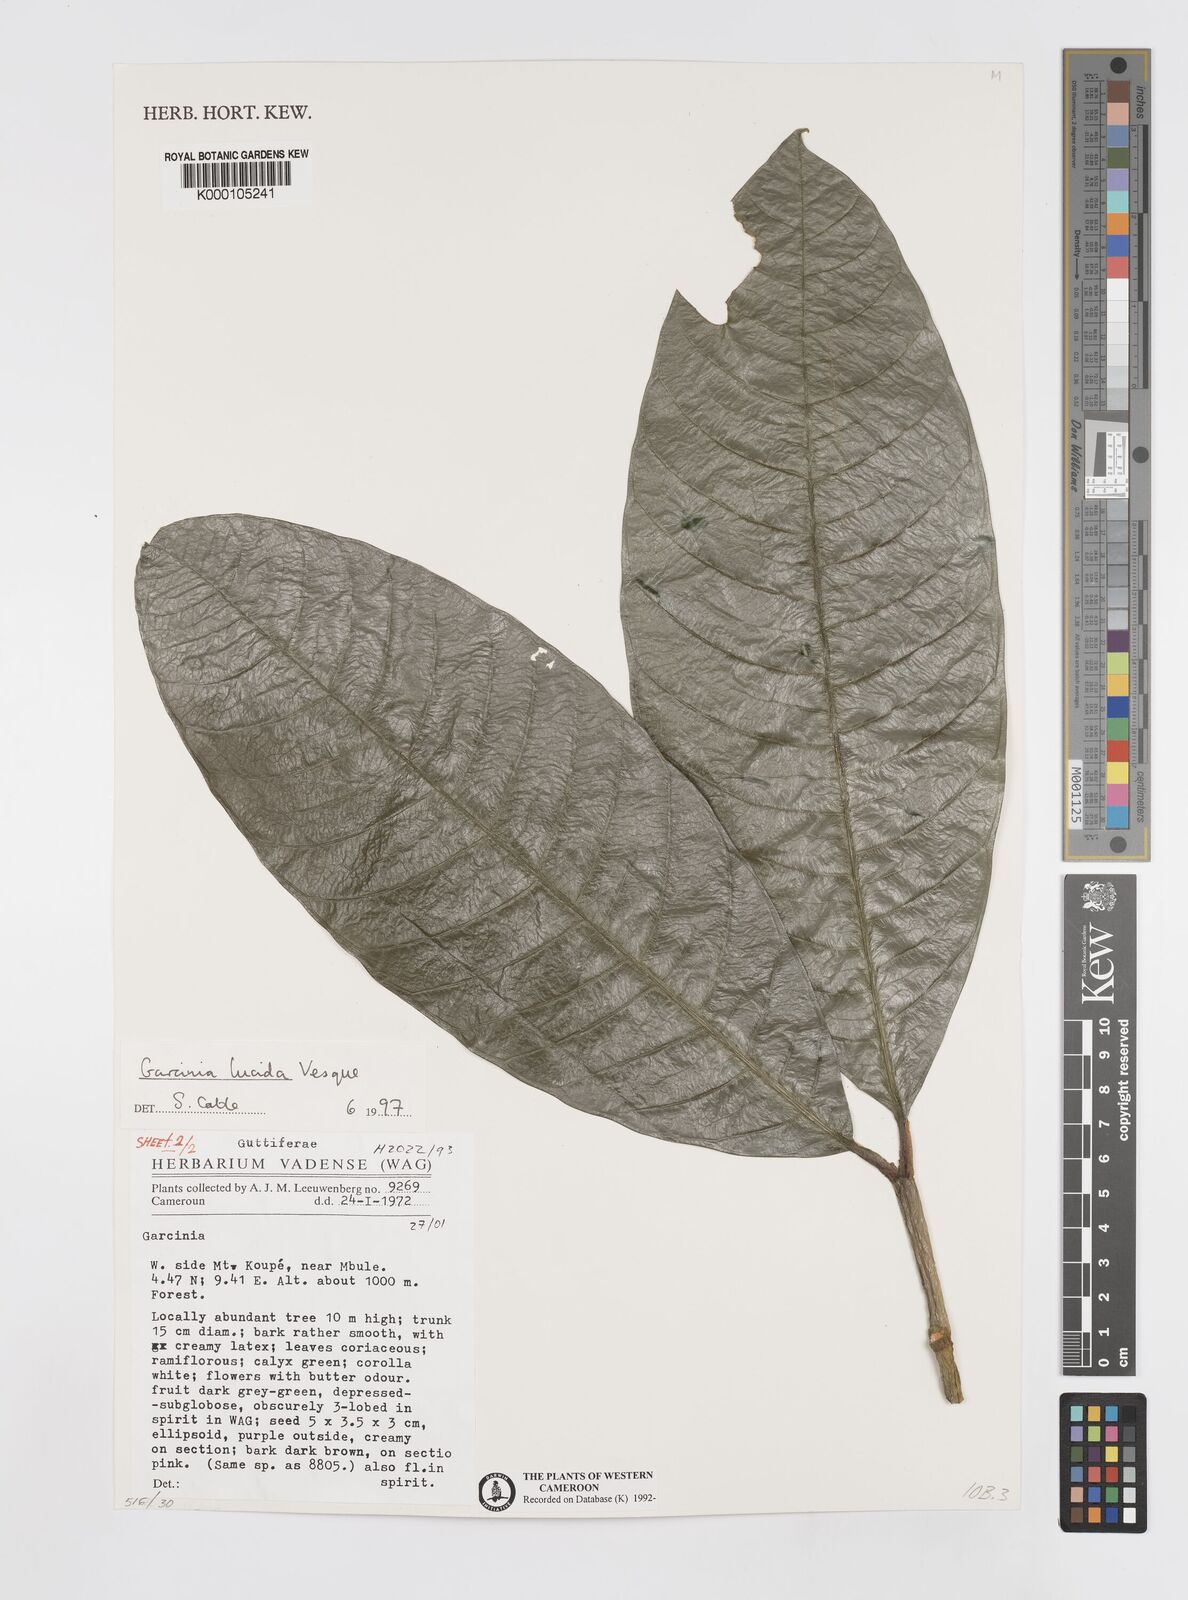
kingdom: Plantae
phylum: Tracheophyta
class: Magnoliopsida
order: Malpighiales
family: Clusiaceae
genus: Garcinia
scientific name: Garcinia lucida
